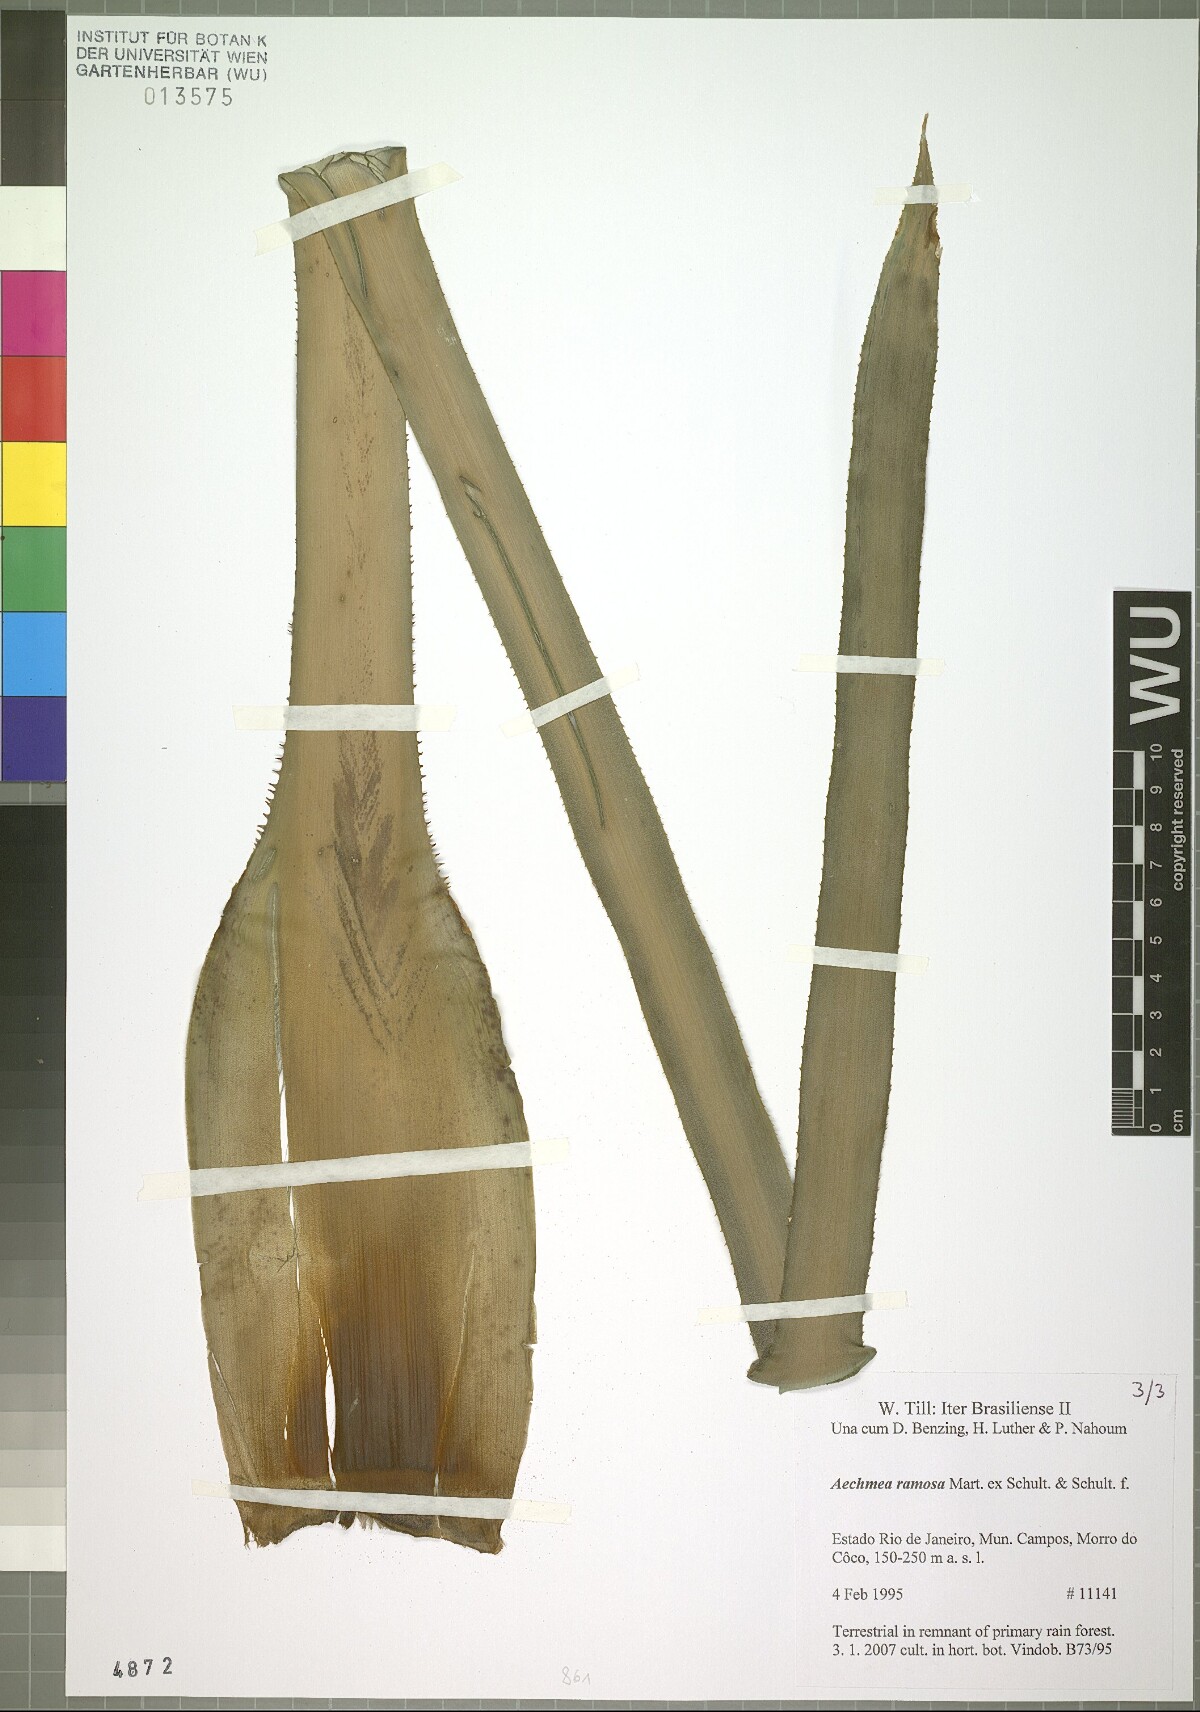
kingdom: Plantae
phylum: Tracheophyta
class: Liliopsida
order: Poales
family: Bromeliaceae
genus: Aechmea
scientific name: Aechmea ramosa
